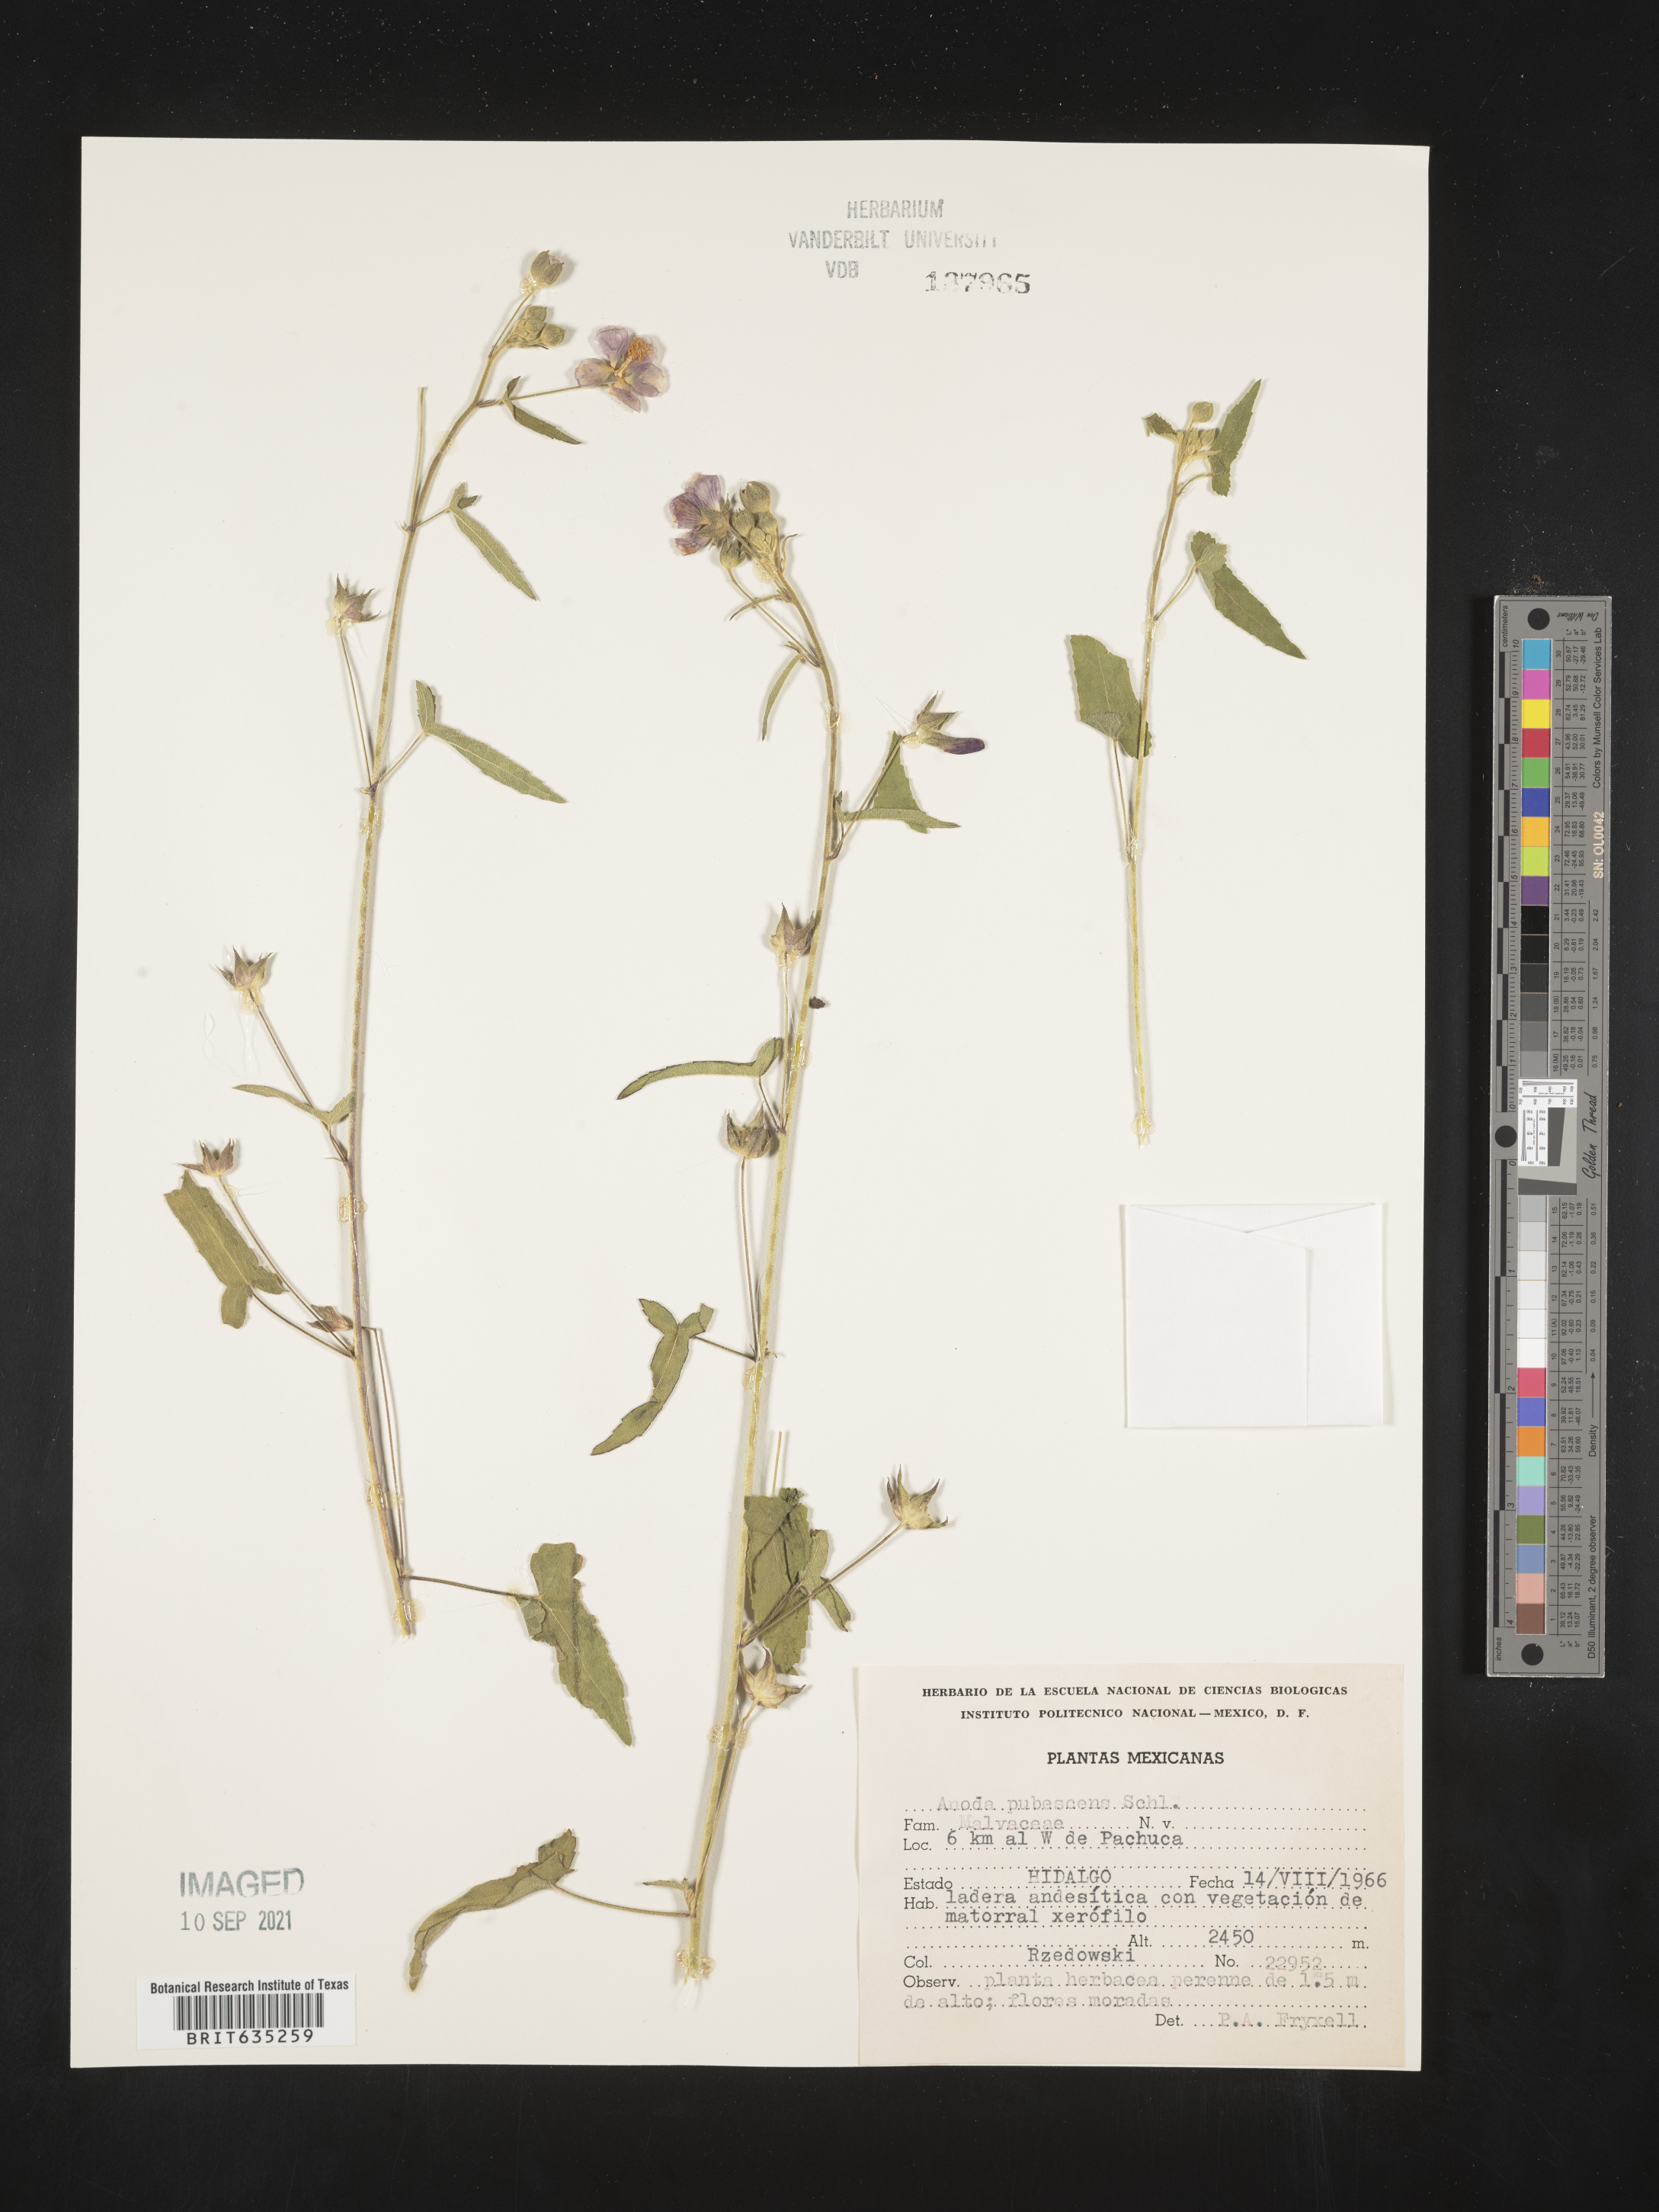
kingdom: Plantae
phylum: Tracheophyta
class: Magnoliopsida
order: Malvales
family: Malvaceae
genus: Anoda
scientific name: Anoda
